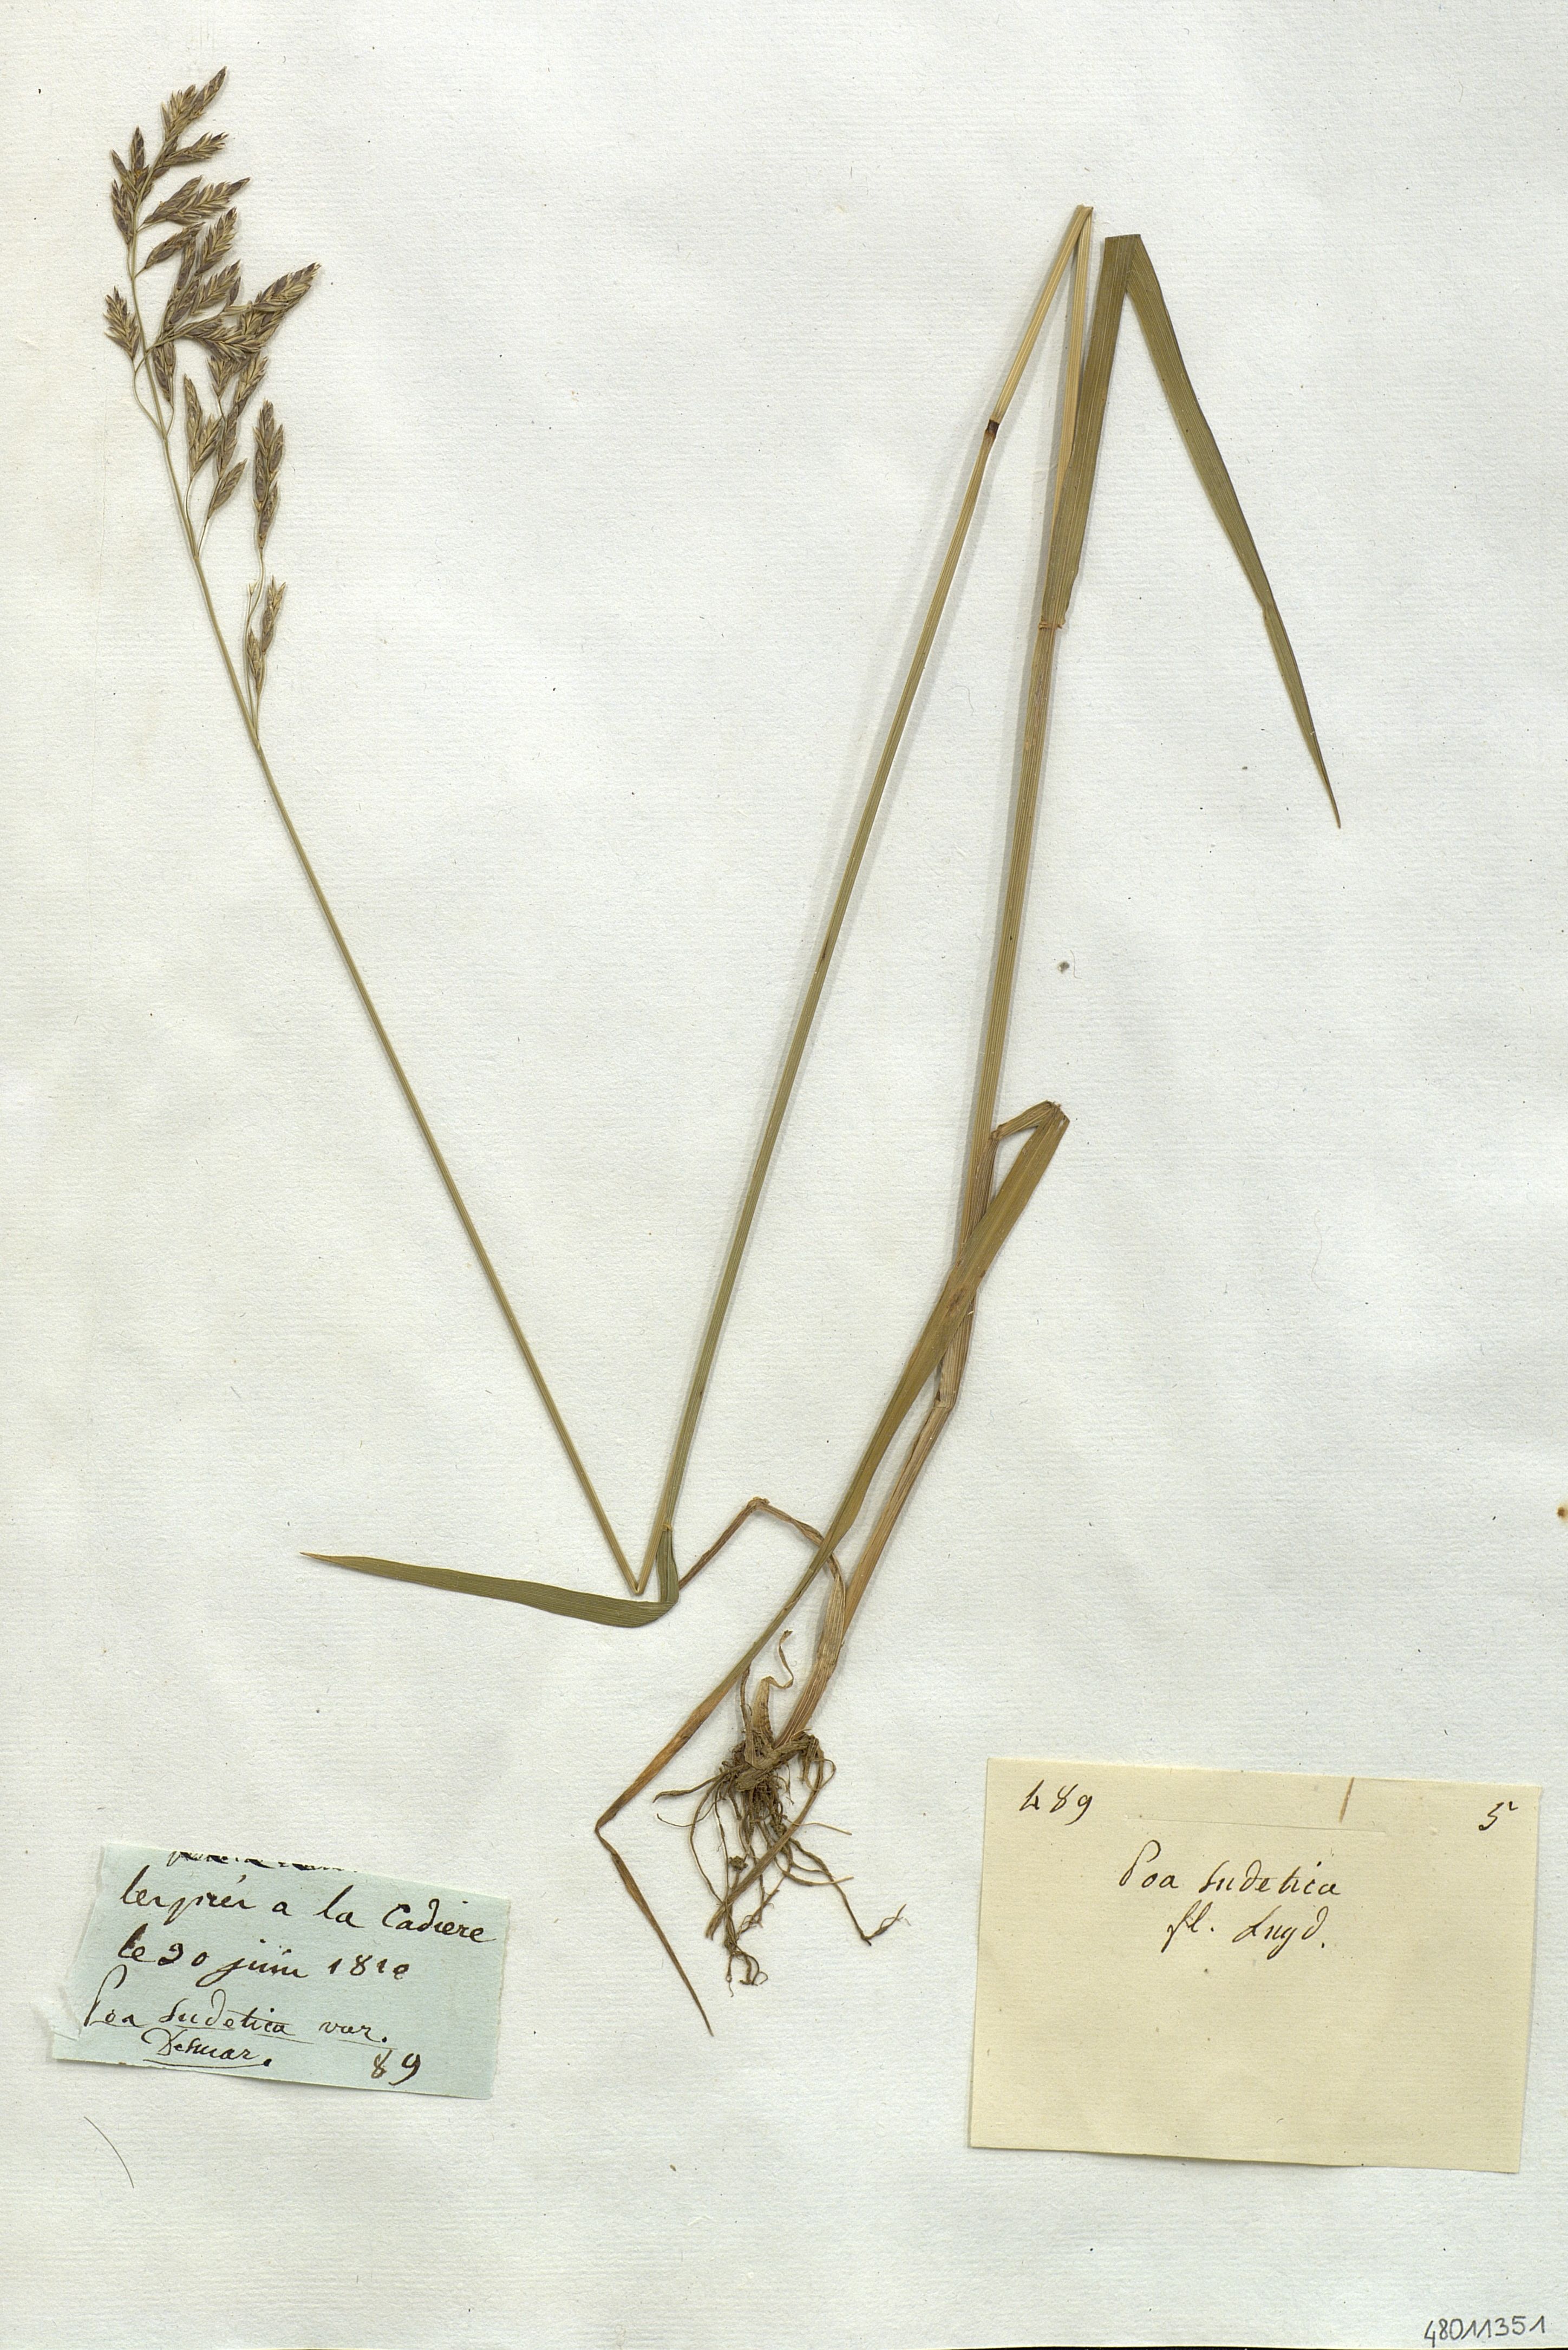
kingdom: Plantae
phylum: Tracheophyta
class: Liliopsida
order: Poales
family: Poaceae
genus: Poa
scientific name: Poa sudetica
